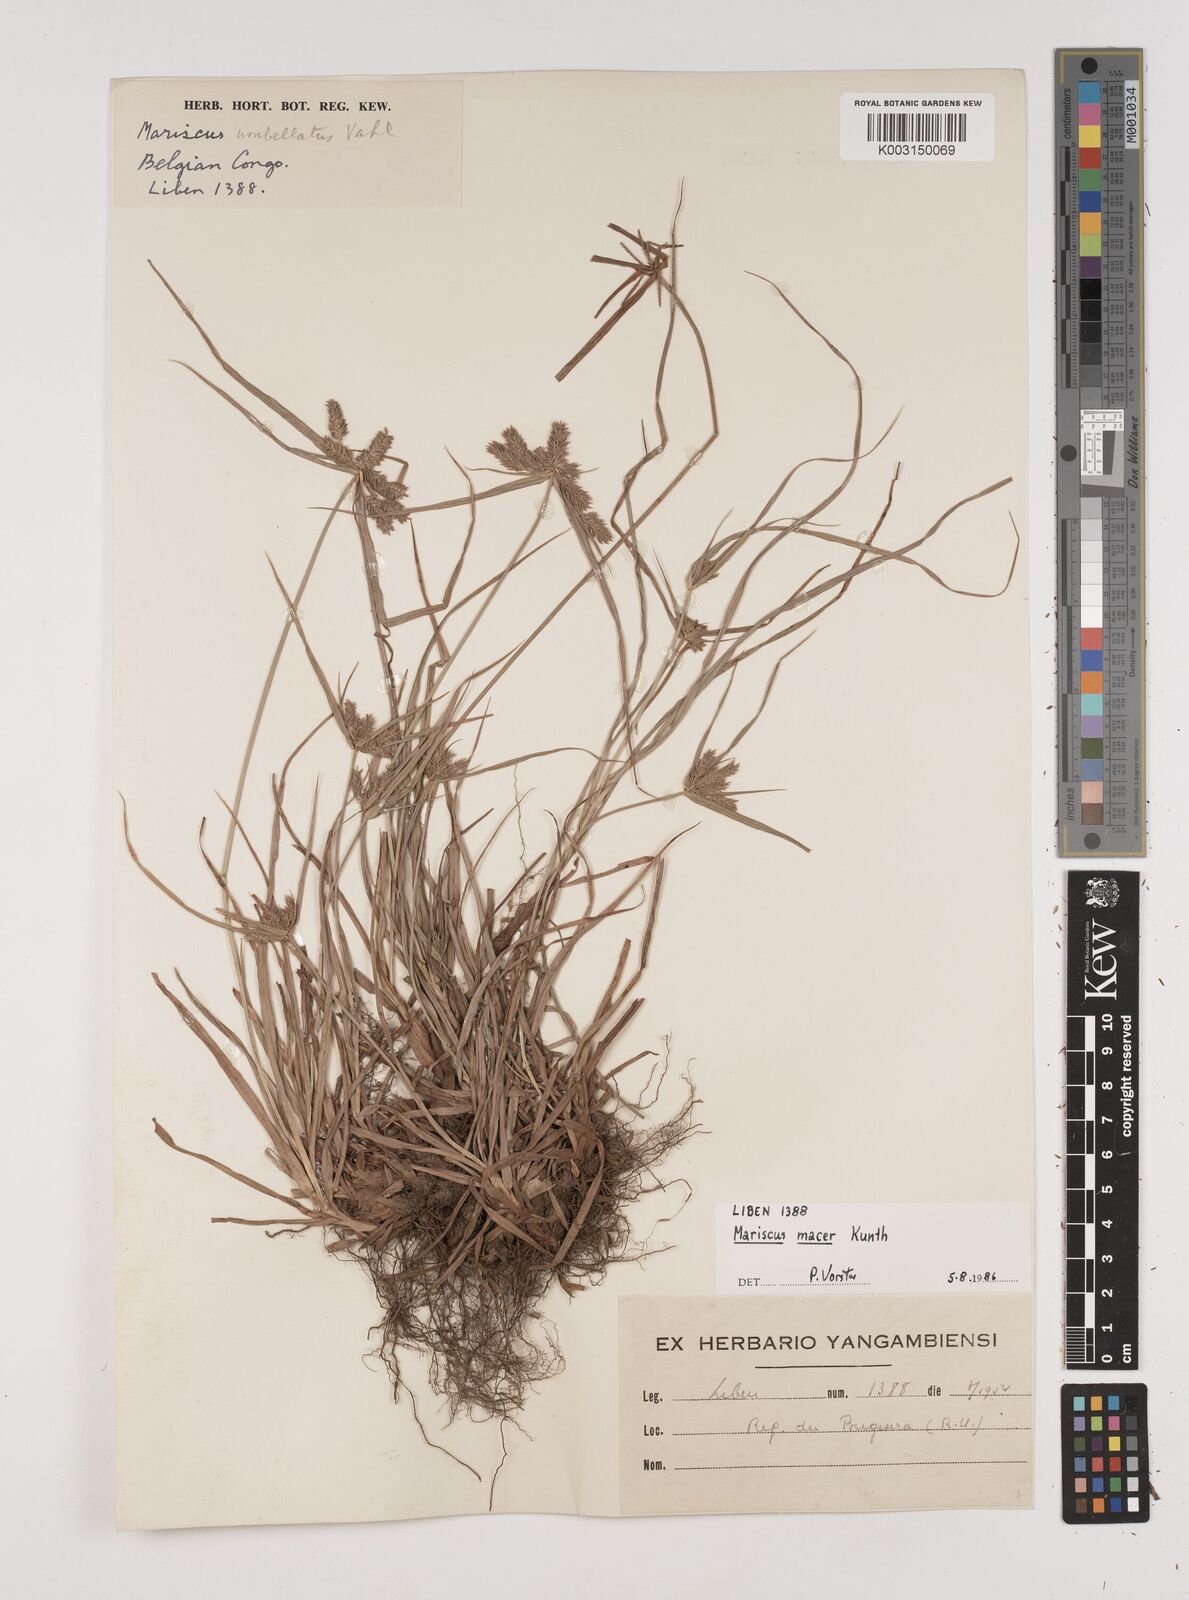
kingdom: Plantae
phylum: Tracheophyta
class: Liliopsida
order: Poales
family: Cyperaceae
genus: Cyperus
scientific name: Cyperus macrocarpus
